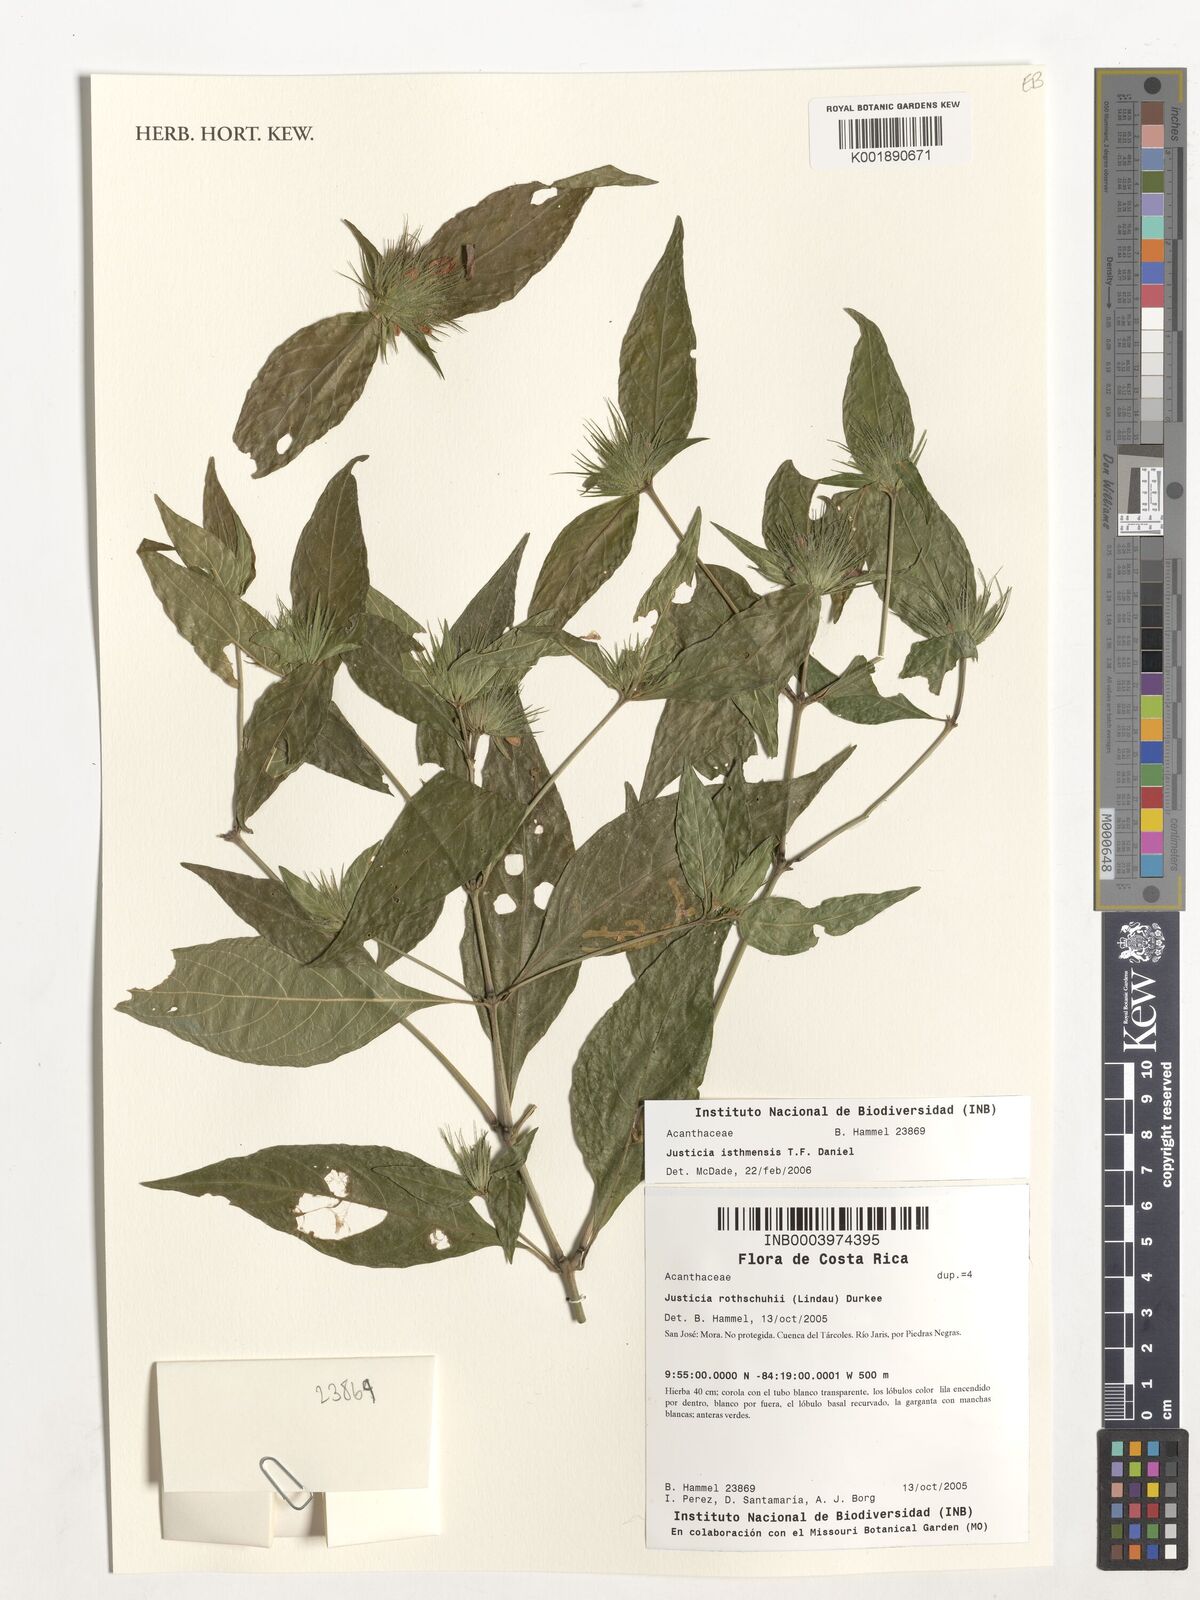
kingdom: Plantae
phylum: Tracheophyta
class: Magnoliopsida
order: Lamiales
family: Acanthaceae
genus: Justicia
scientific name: Justicia rothschuhii
